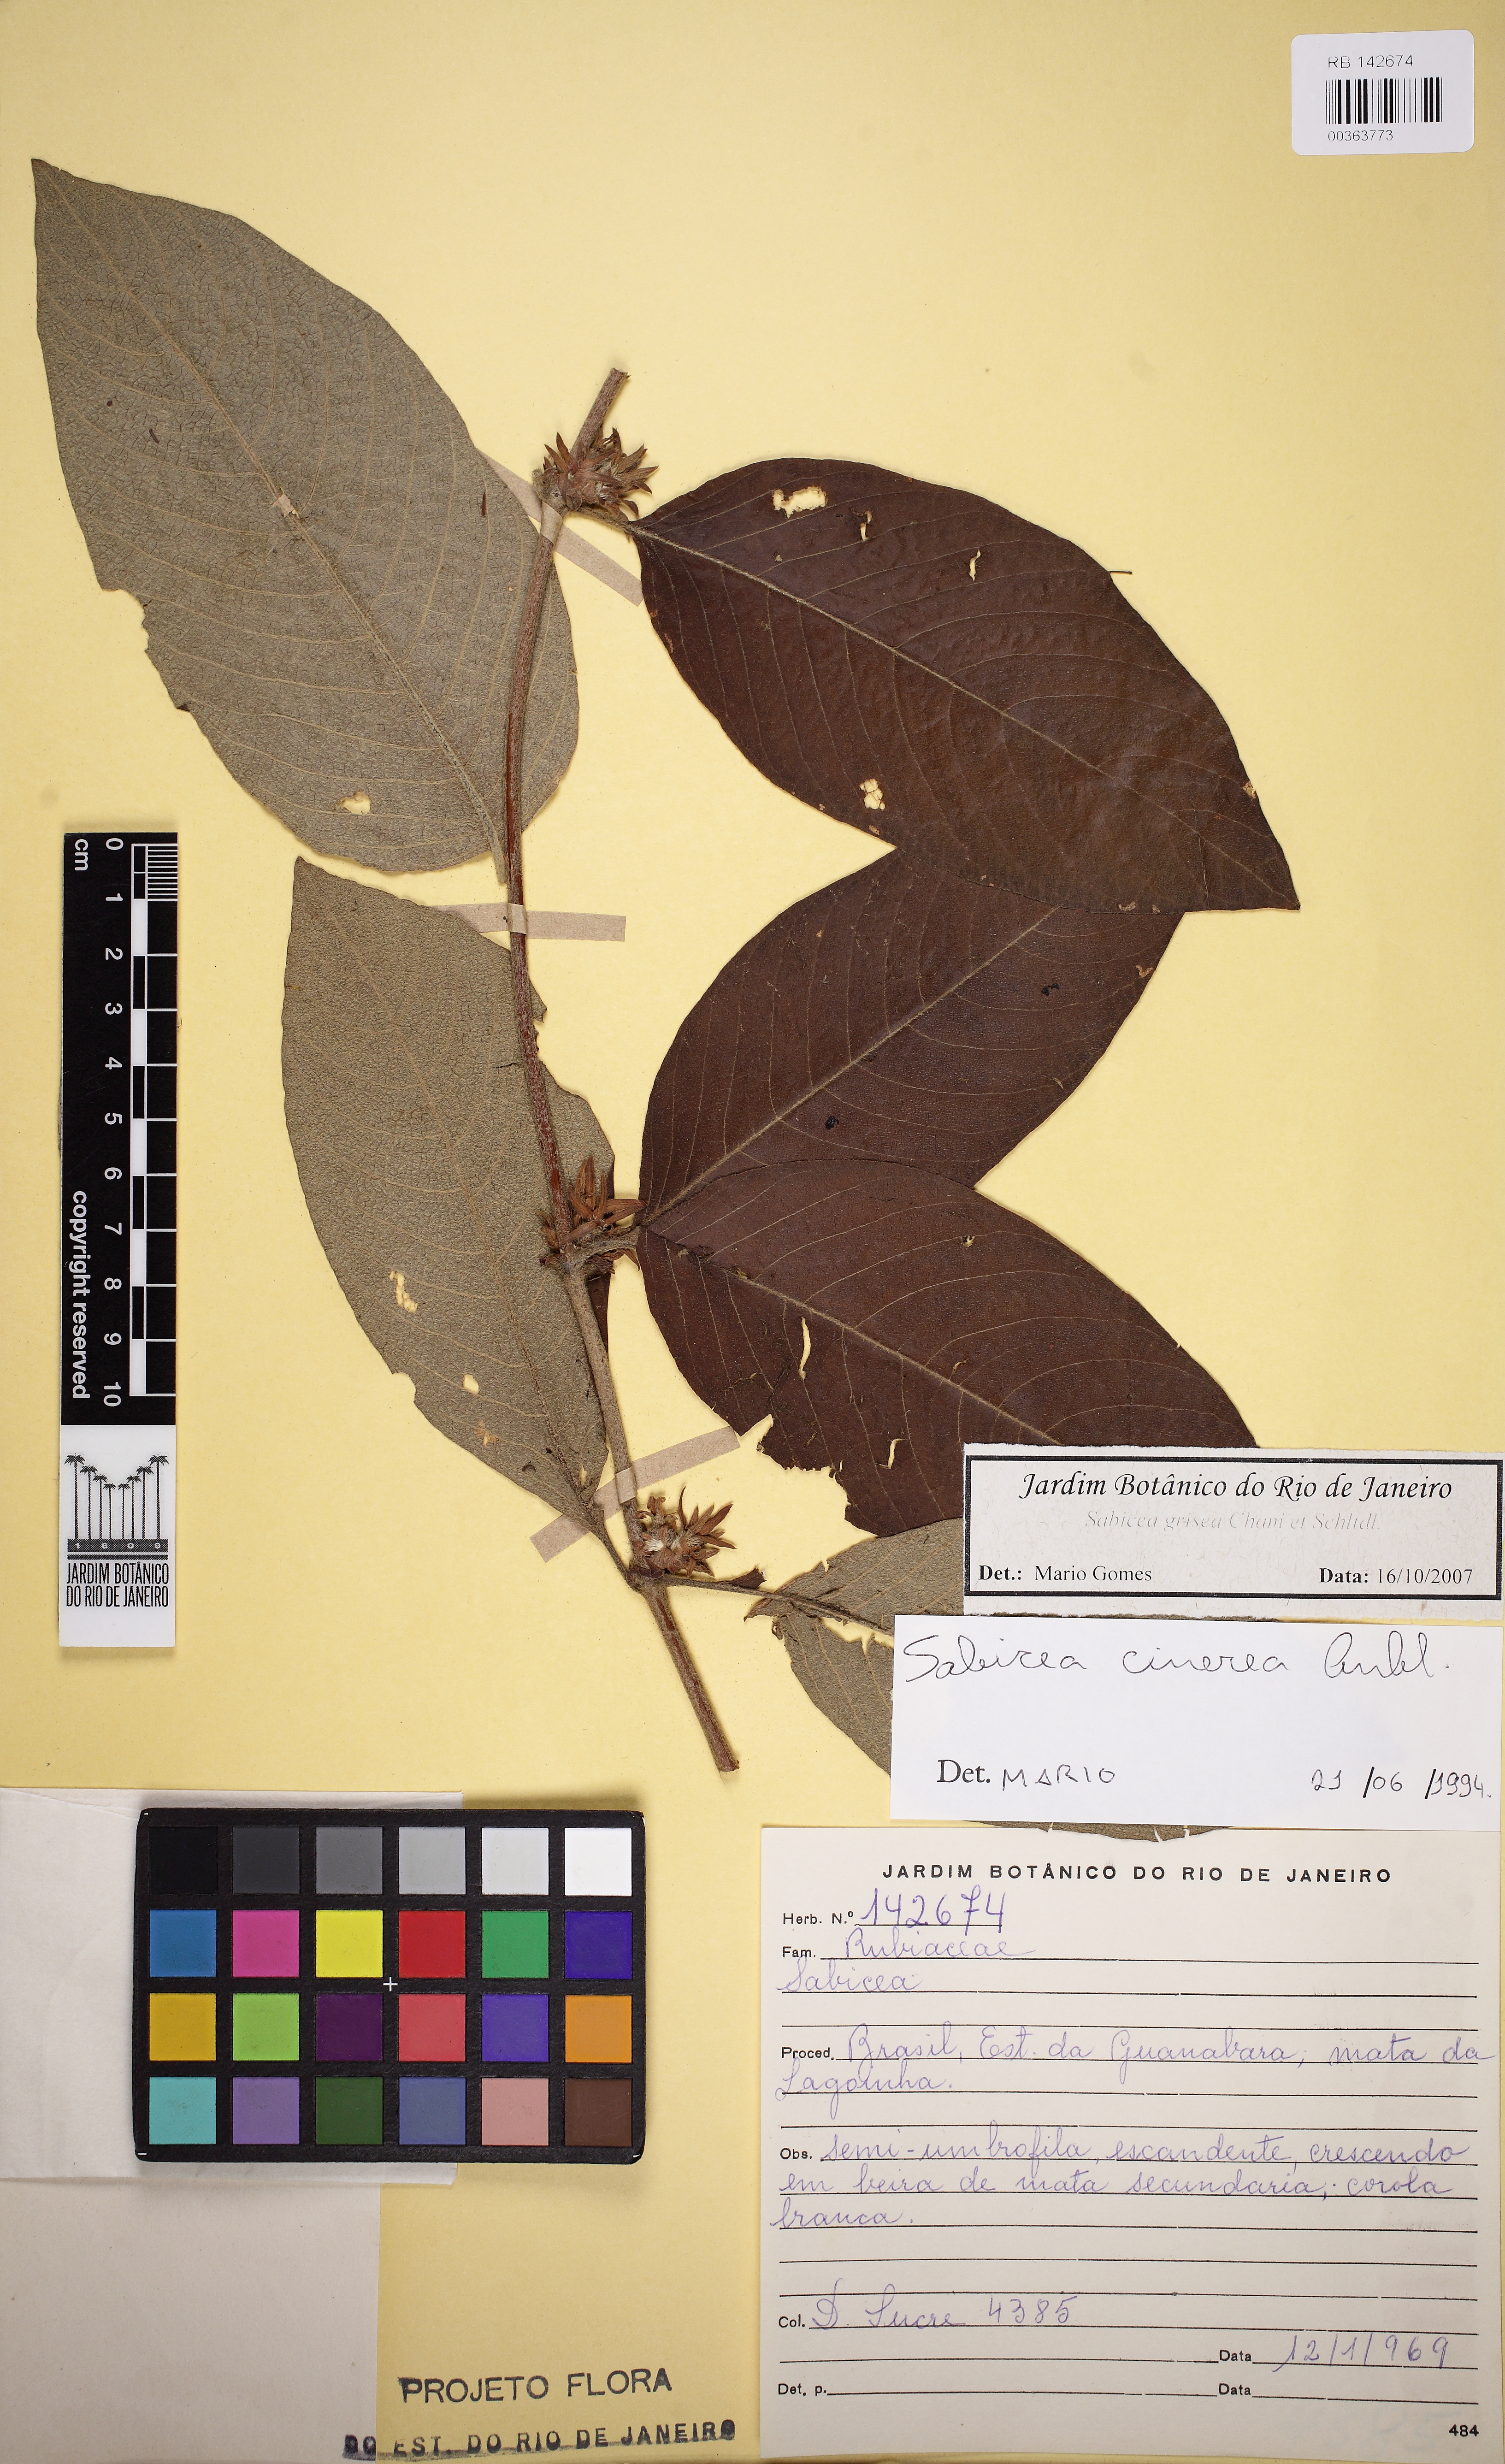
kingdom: Plantae
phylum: Tracheophyta
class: Magnoliopsida
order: Gentianales
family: Rubiaceae
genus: Sabicea
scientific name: Sabicea grisea
